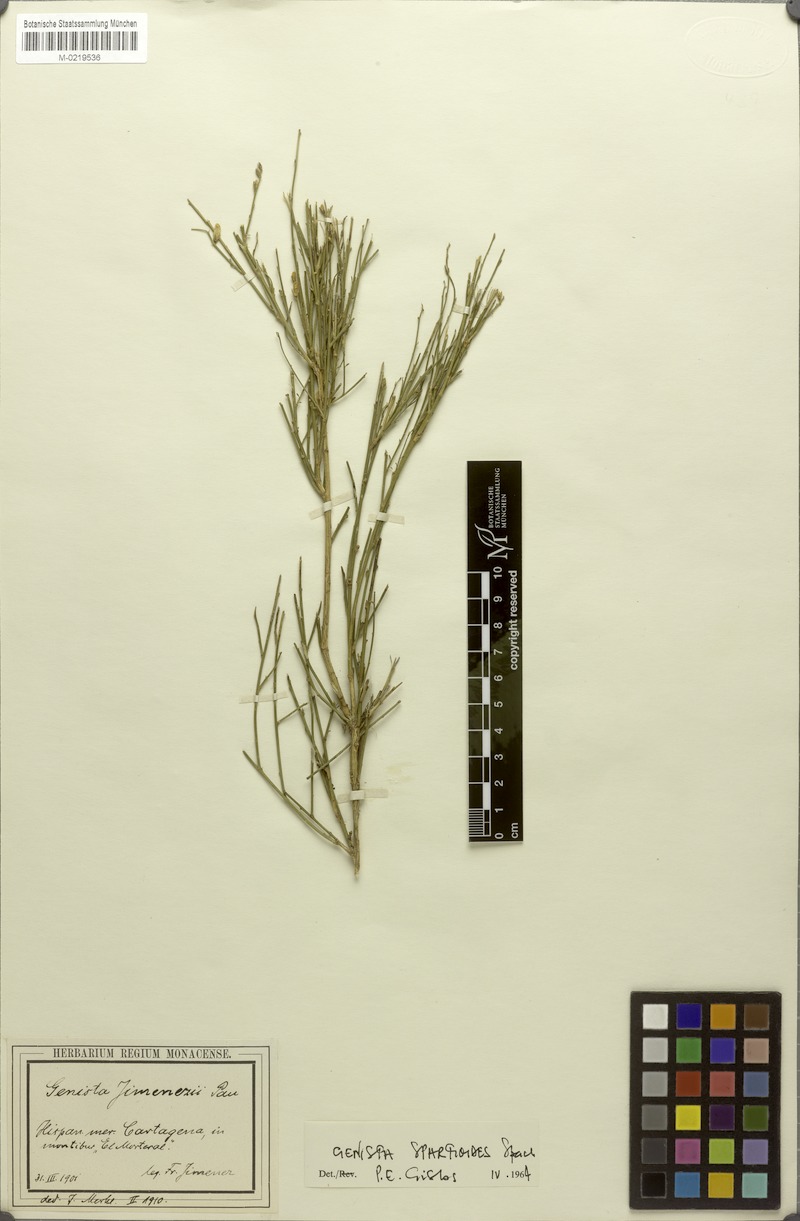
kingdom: Plantae
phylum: Tracheophyta
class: Magnoliopsida
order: Fabales
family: Fabaceae
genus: Genista
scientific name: Genista spartioides
